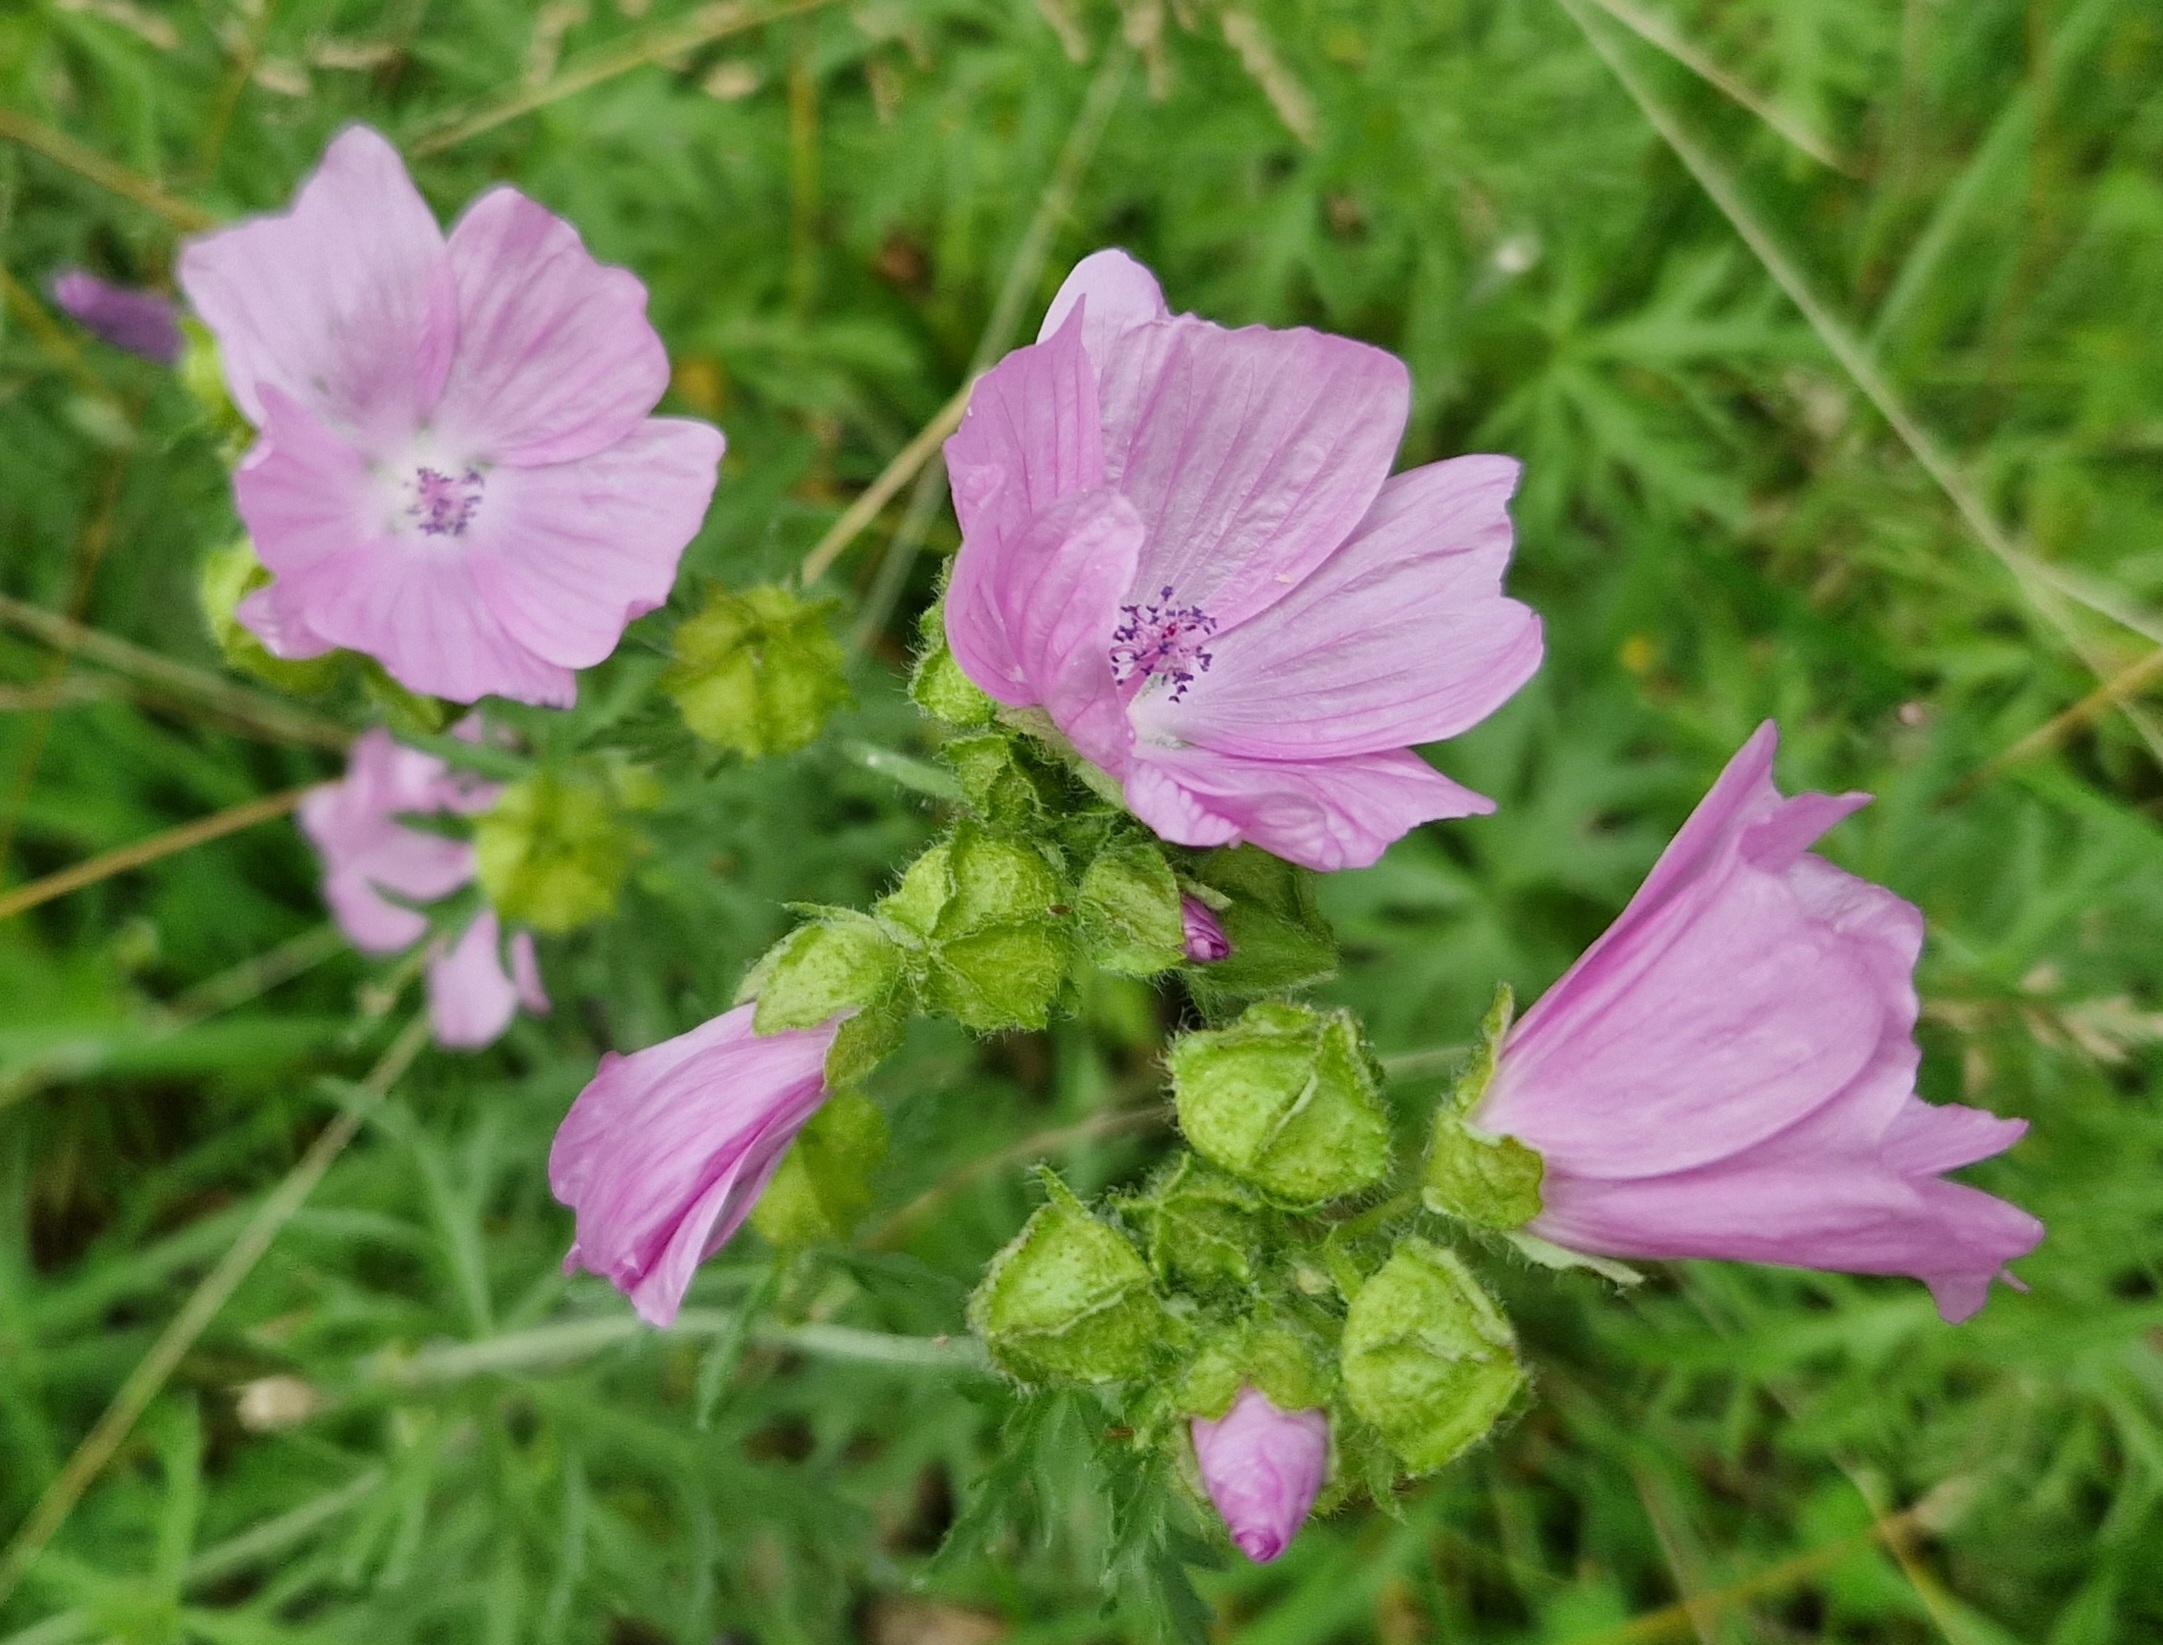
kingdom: Plantae
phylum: Tracheophyta
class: Magnoliopsida
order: Malvales
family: Malvaceae
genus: Malva
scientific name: Malva moschata
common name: Moskus-katost
